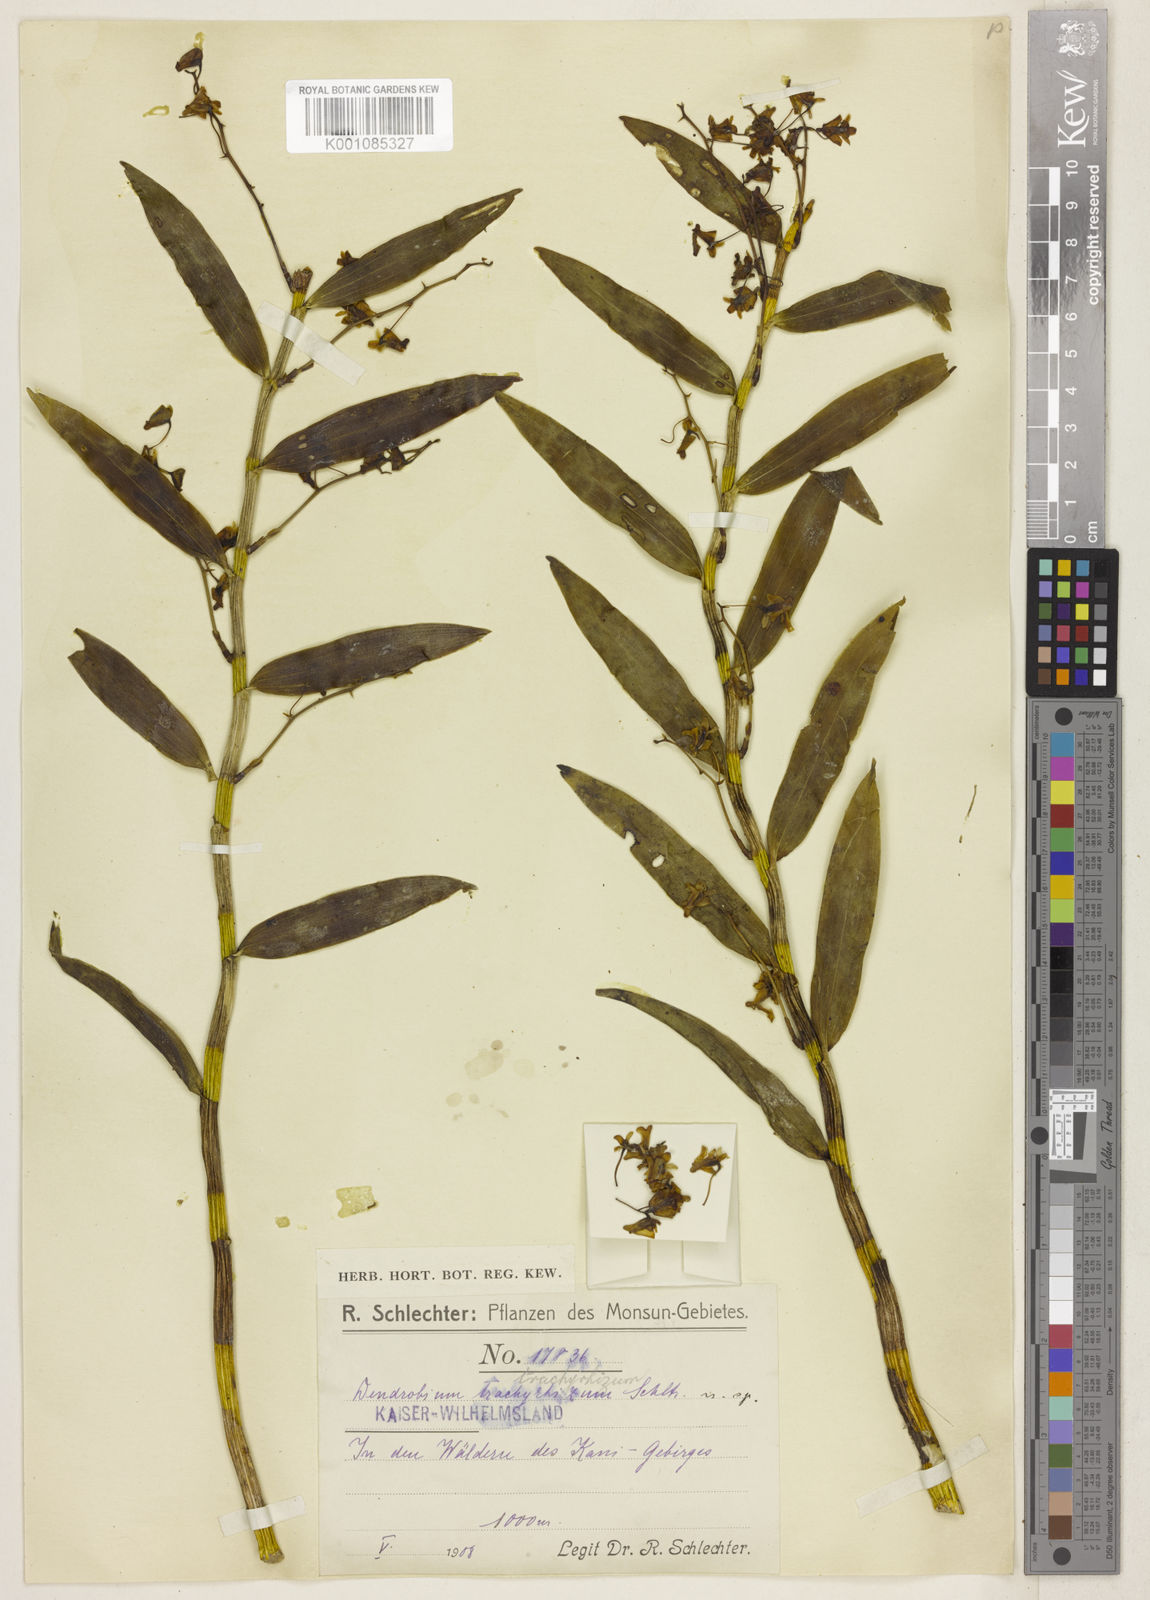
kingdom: Plantae
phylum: Tracheophyta
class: Liliopsida
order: Asparagales
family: Orchidaceae
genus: Dendrobium
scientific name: Dendrobium angustipetalum
